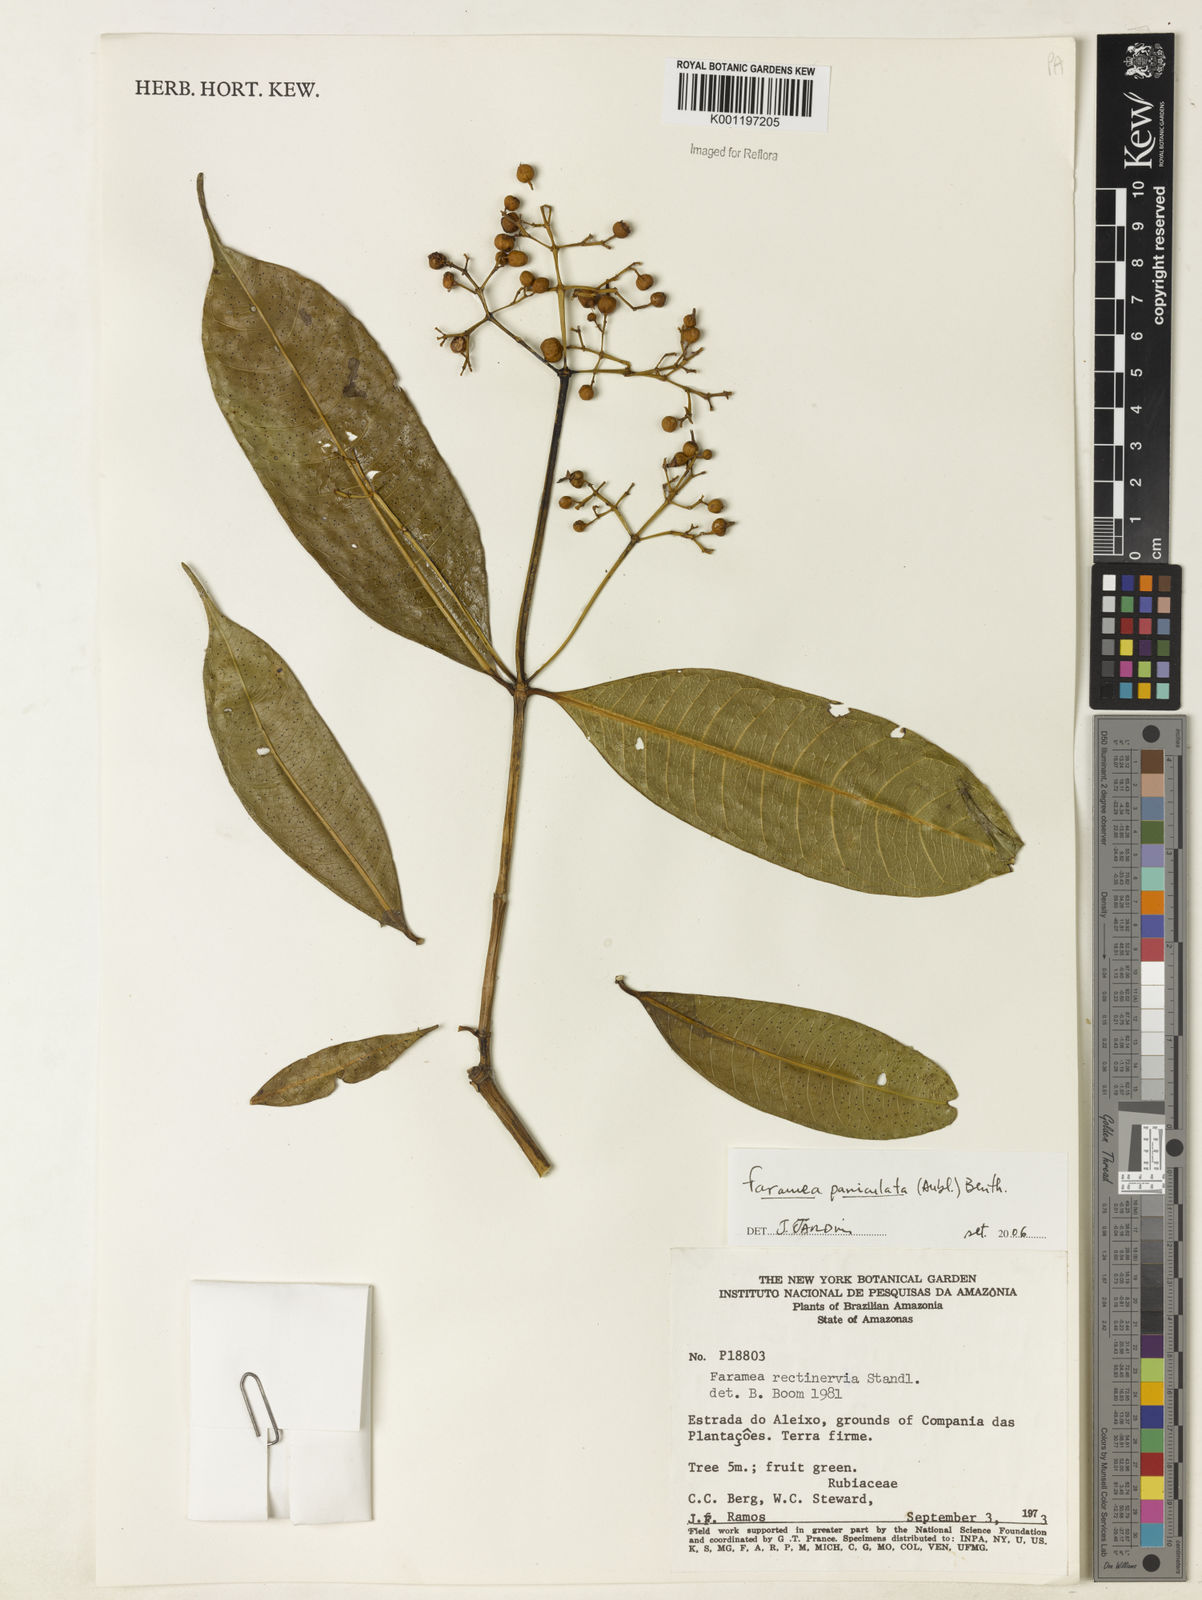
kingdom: Plantae
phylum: Tracheophyta
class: Magnoliopsida
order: Gentianales
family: Rubiaceae
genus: Faramea
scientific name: Faramea paniculata
